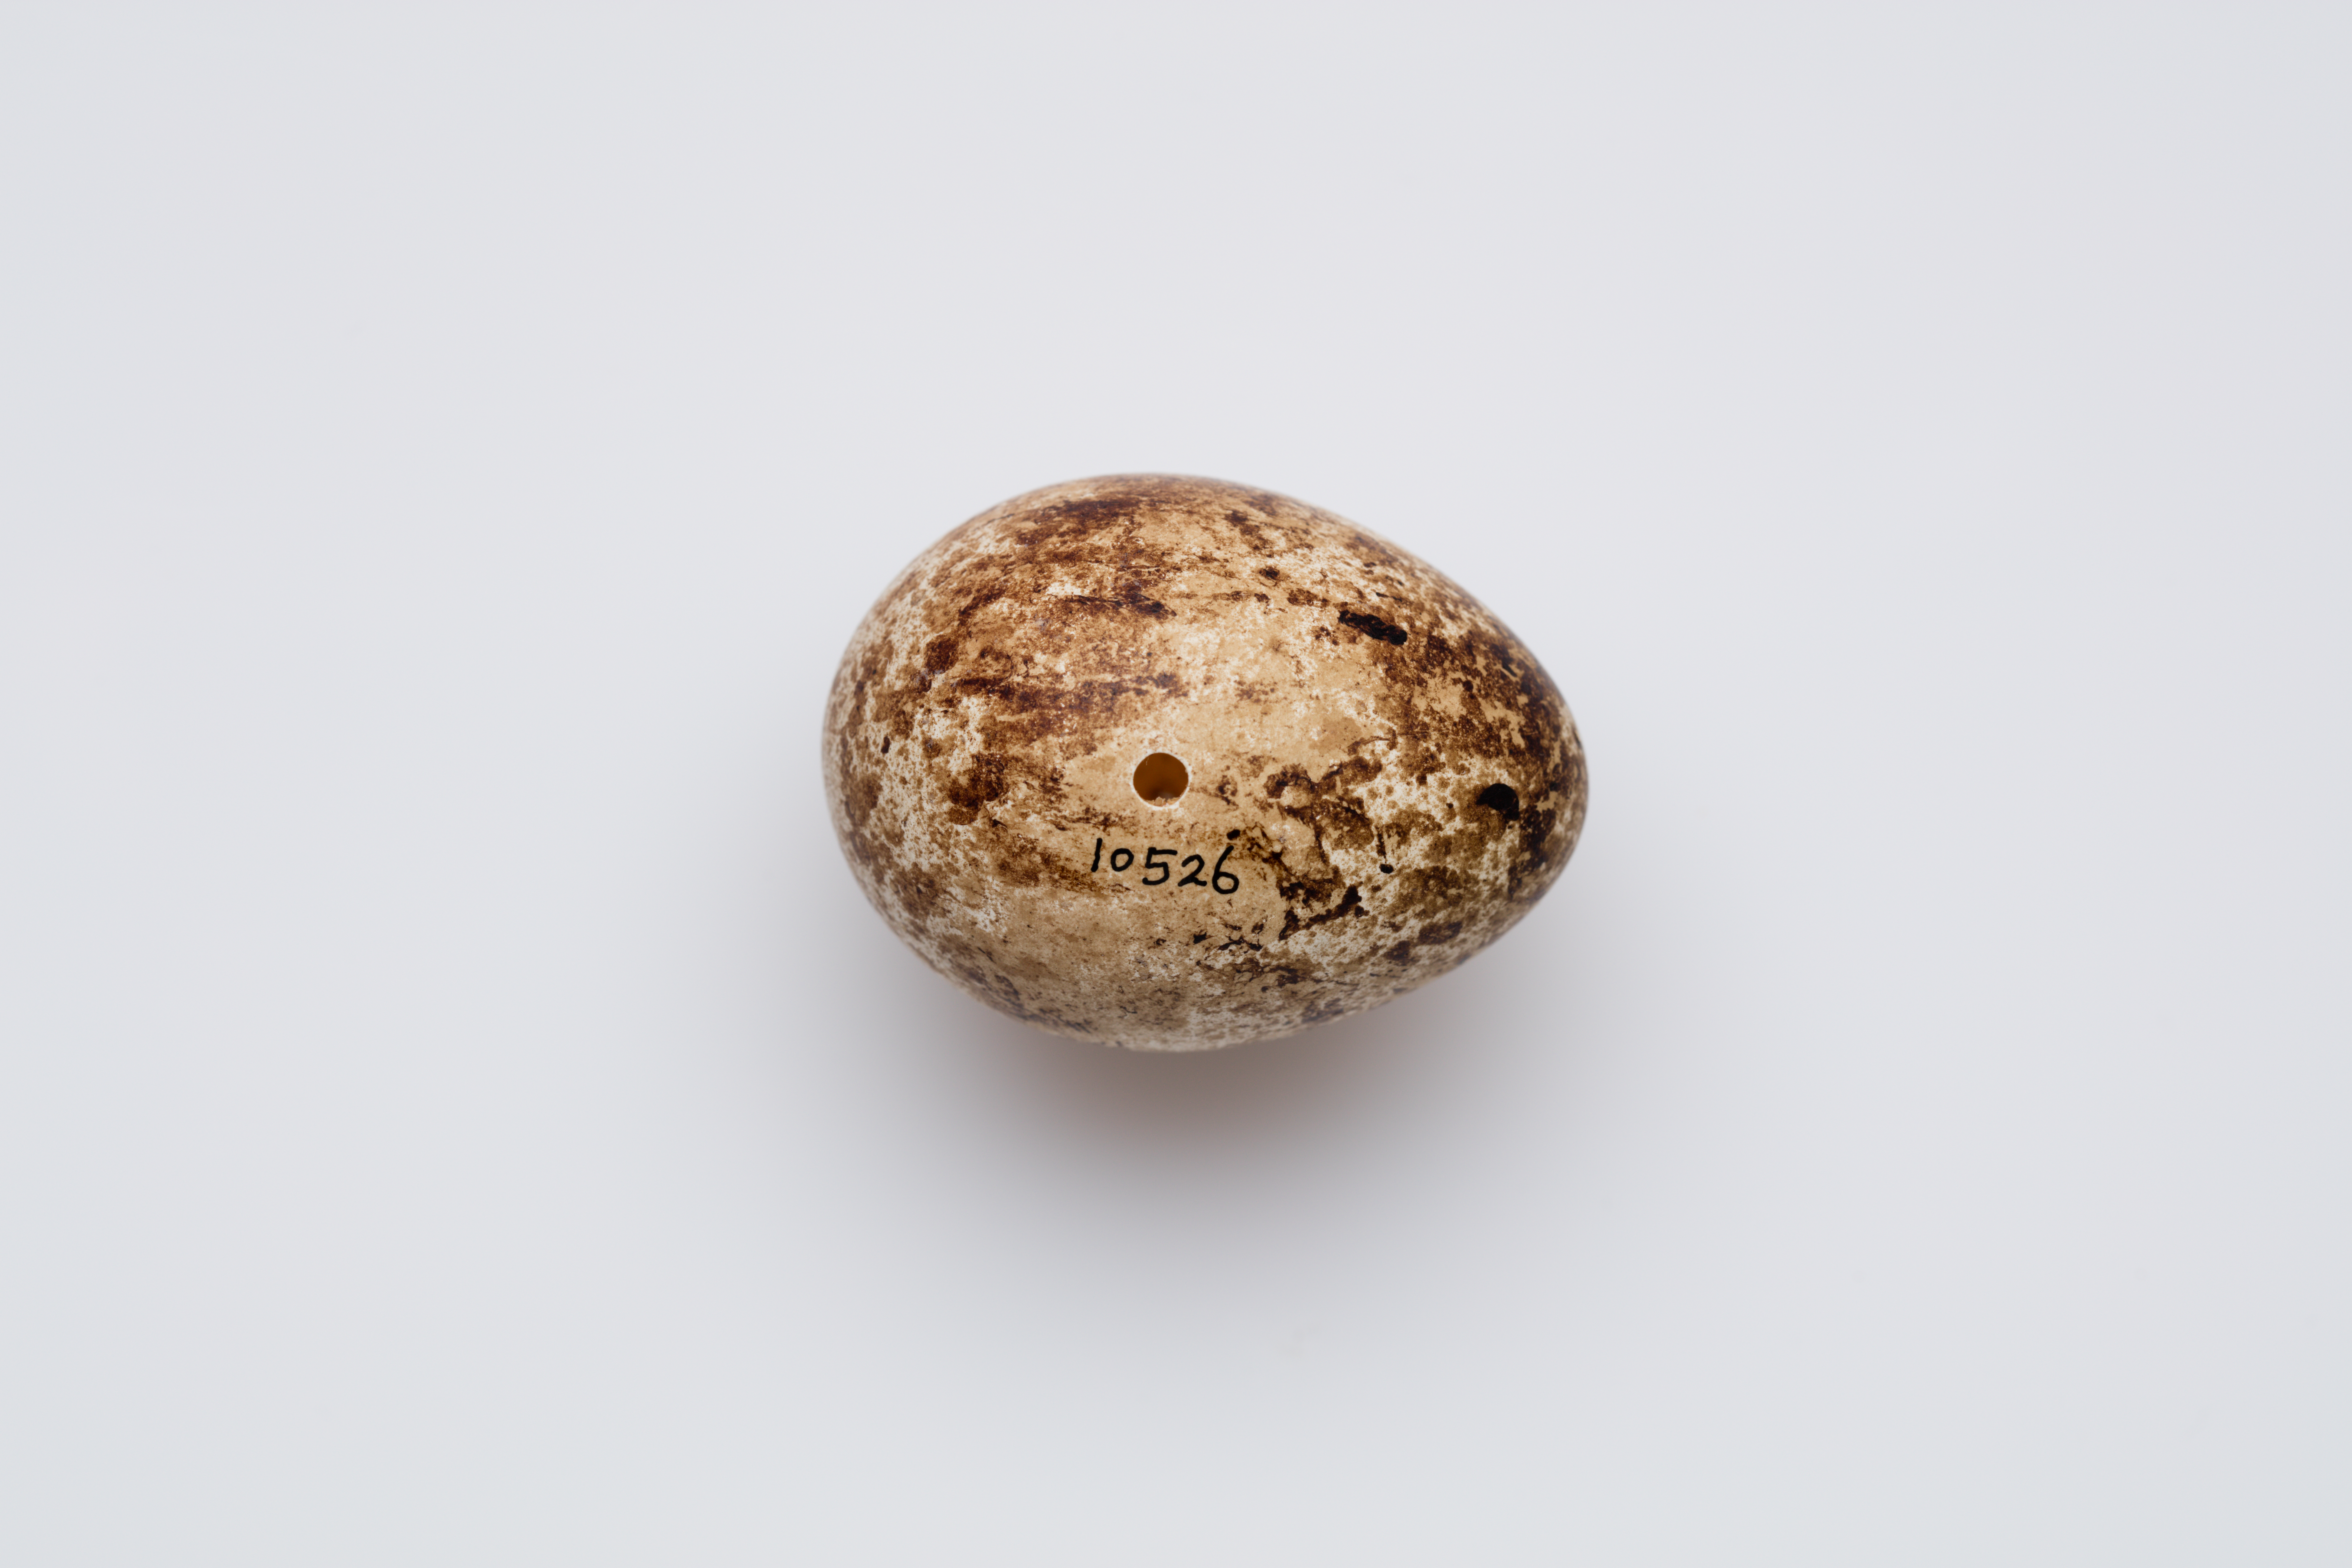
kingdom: Animalia
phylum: Chordata
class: Aves
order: Falconiformes
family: Falconidae
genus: Falco
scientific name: Falco tinnunculus
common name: Common kestrel
